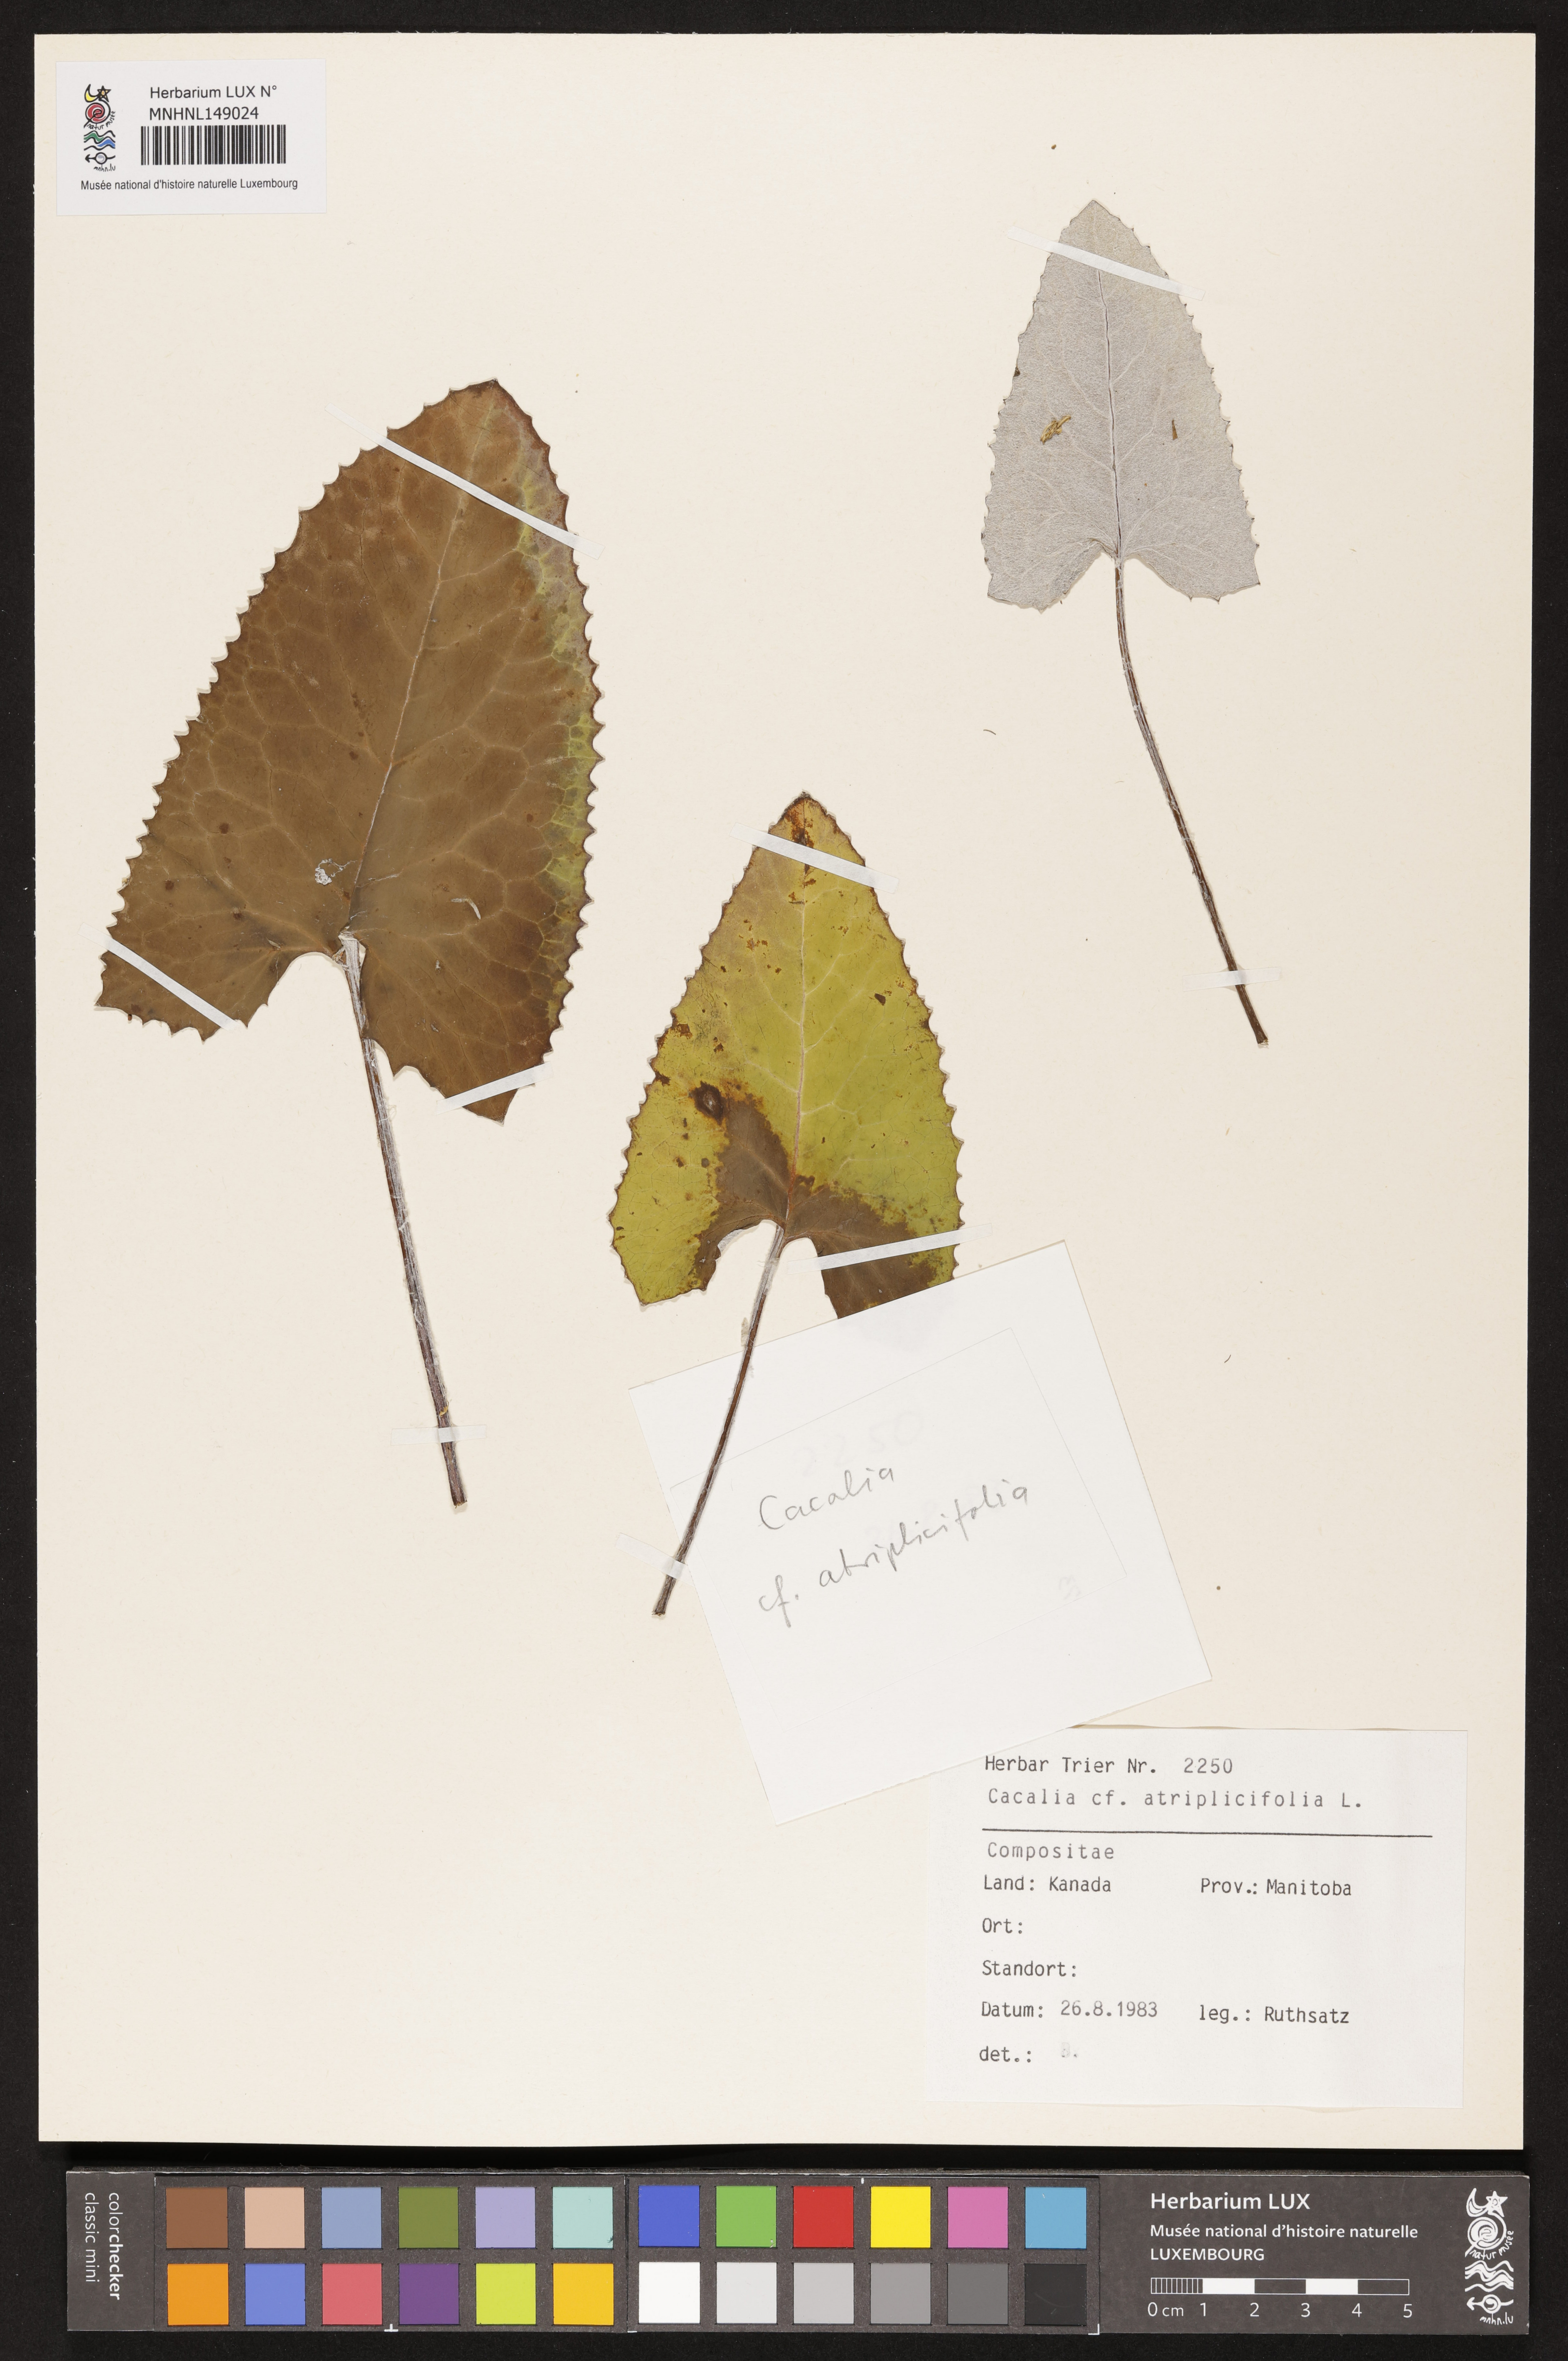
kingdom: Plantae
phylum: Tracheophyta
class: Magnoliopsida
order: Asterales
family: Asteraceae
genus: Arnoglossum
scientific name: Arnoglossum atriplicifolium
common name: Pale indian-plantain
